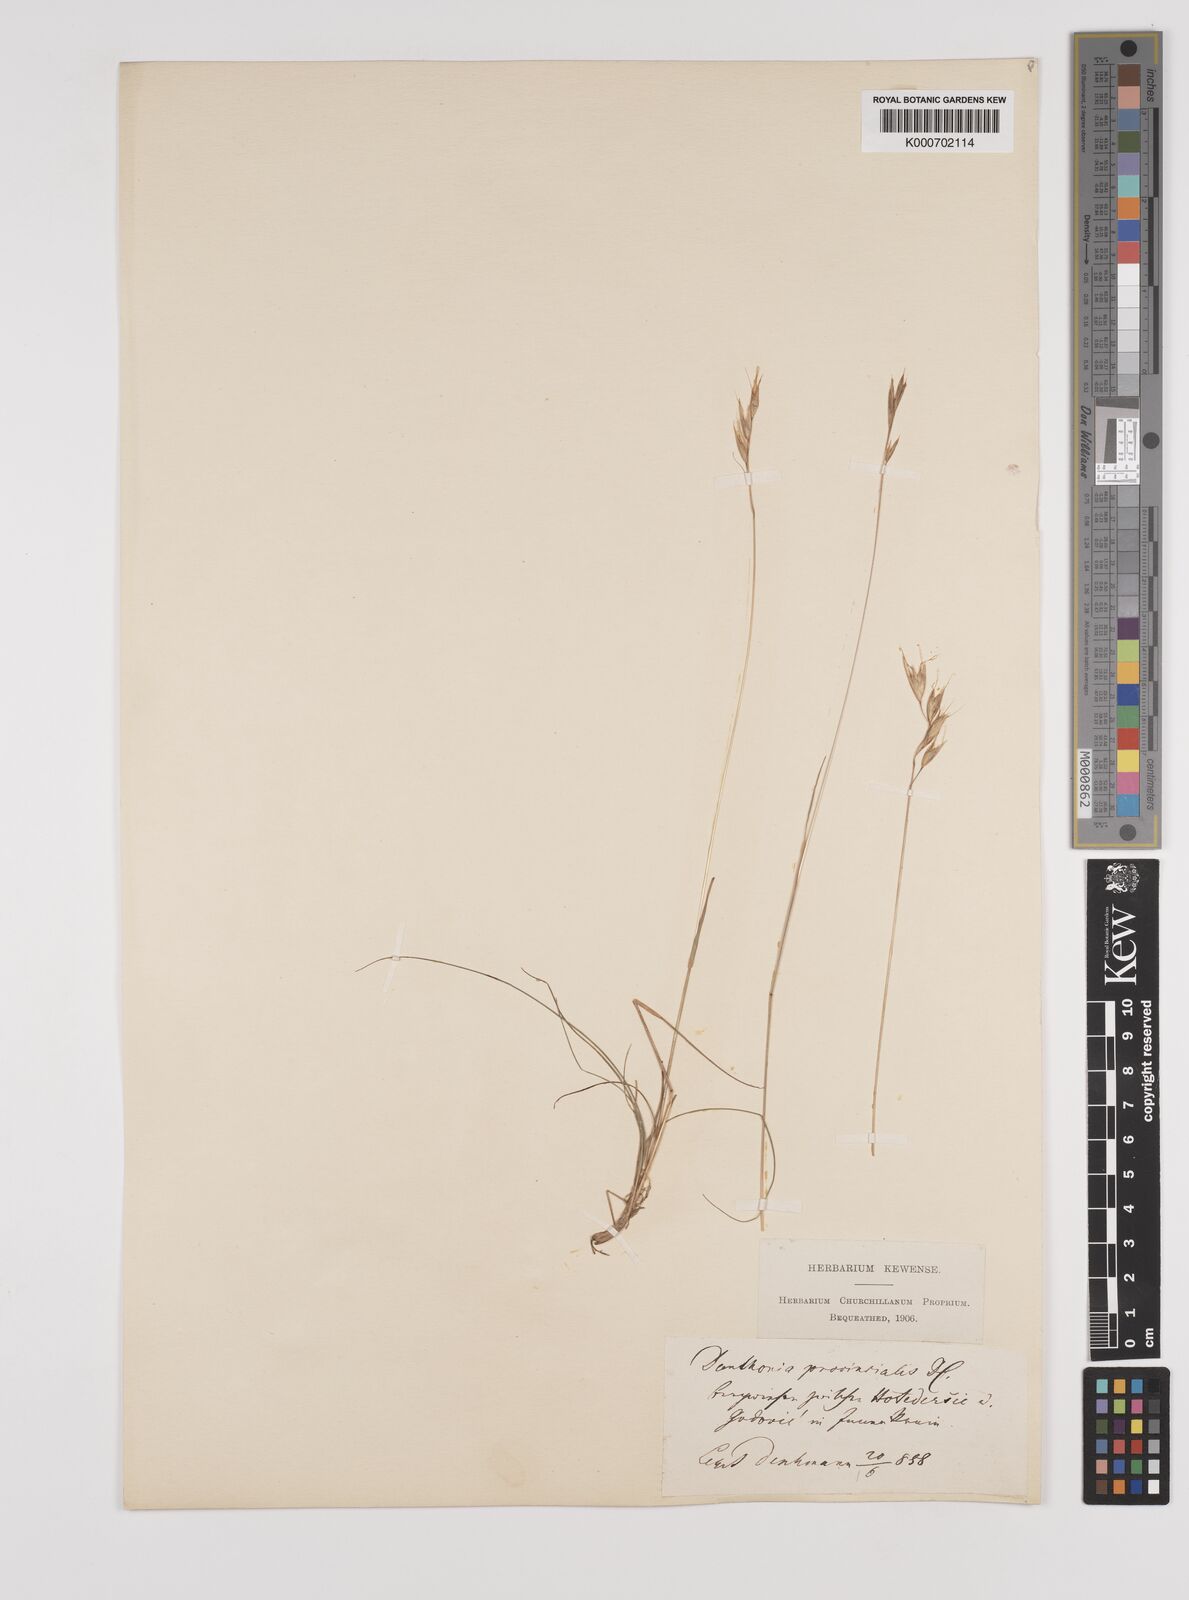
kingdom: Plantae
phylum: Tracheophyta
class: Liliopsida
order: Poales
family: Poaceae
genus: Danthonia
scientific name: Danthonia alpina
